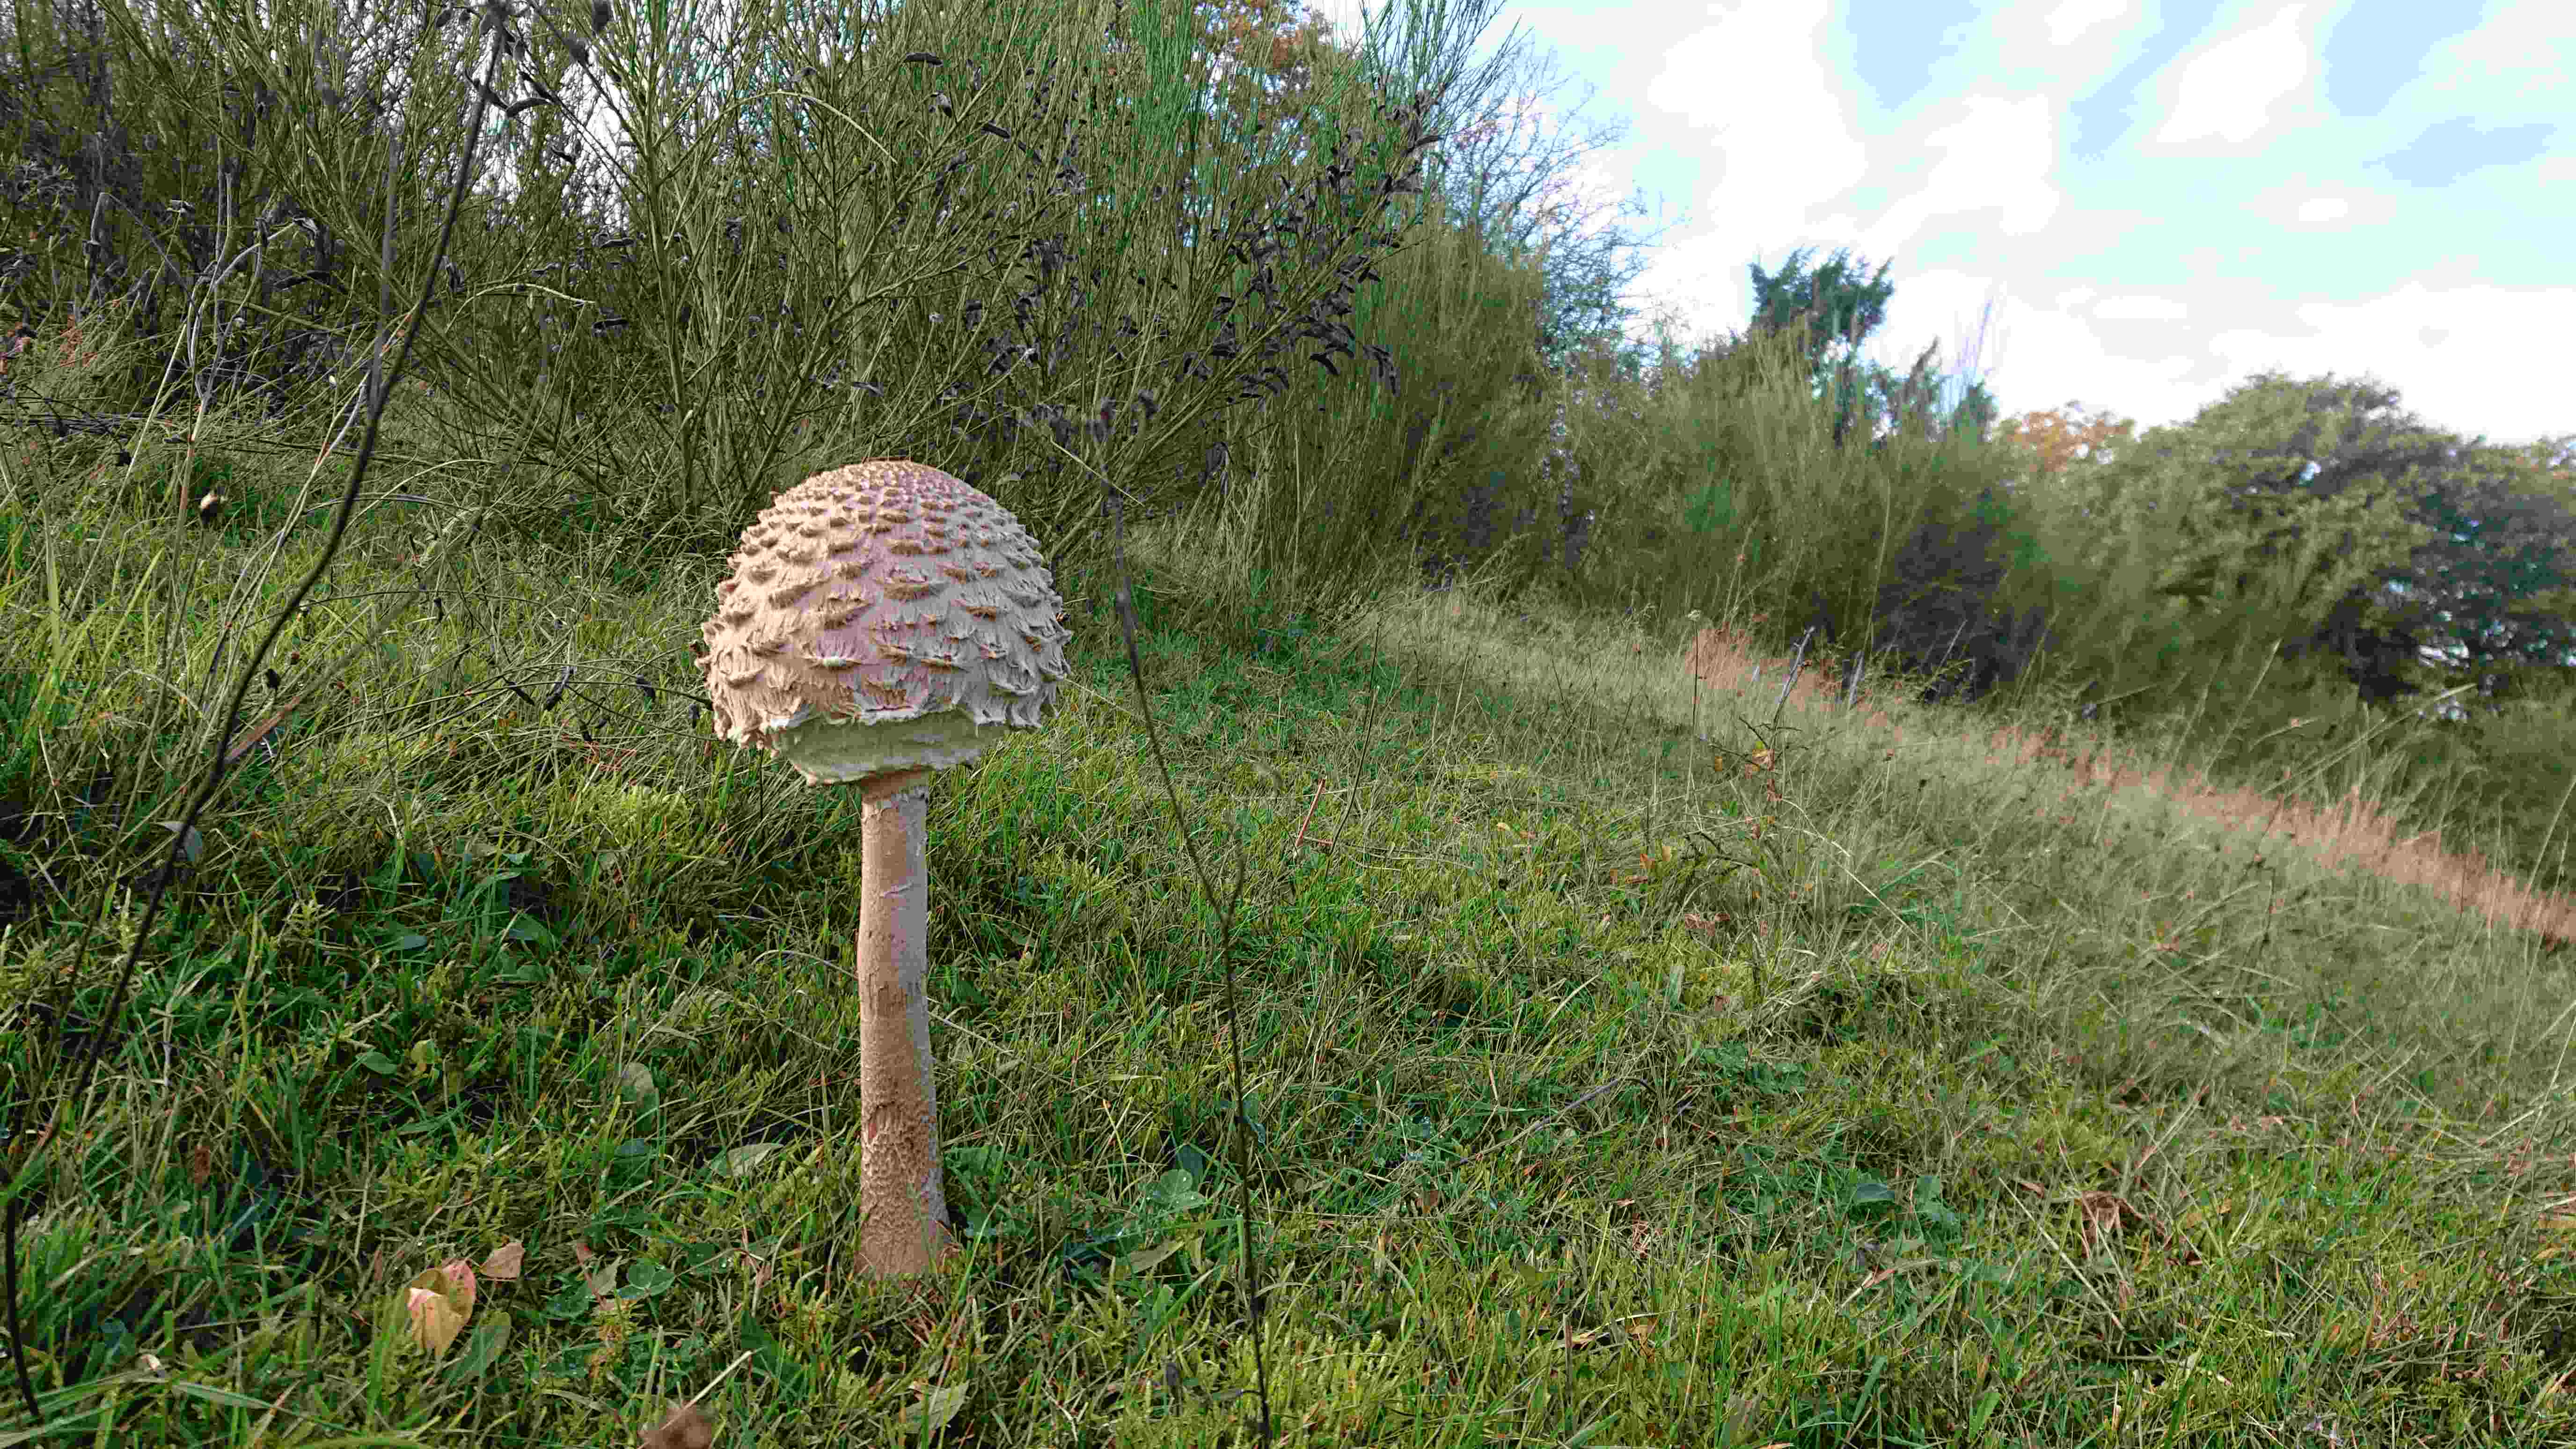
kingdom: Fungi
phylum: Basidiomycota
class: Agaricomycetes
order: Agaricales
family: Agaricaceae
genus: Macrolepiota
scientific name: Macrolepiota procera
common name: stor kæmpeparasolhat
